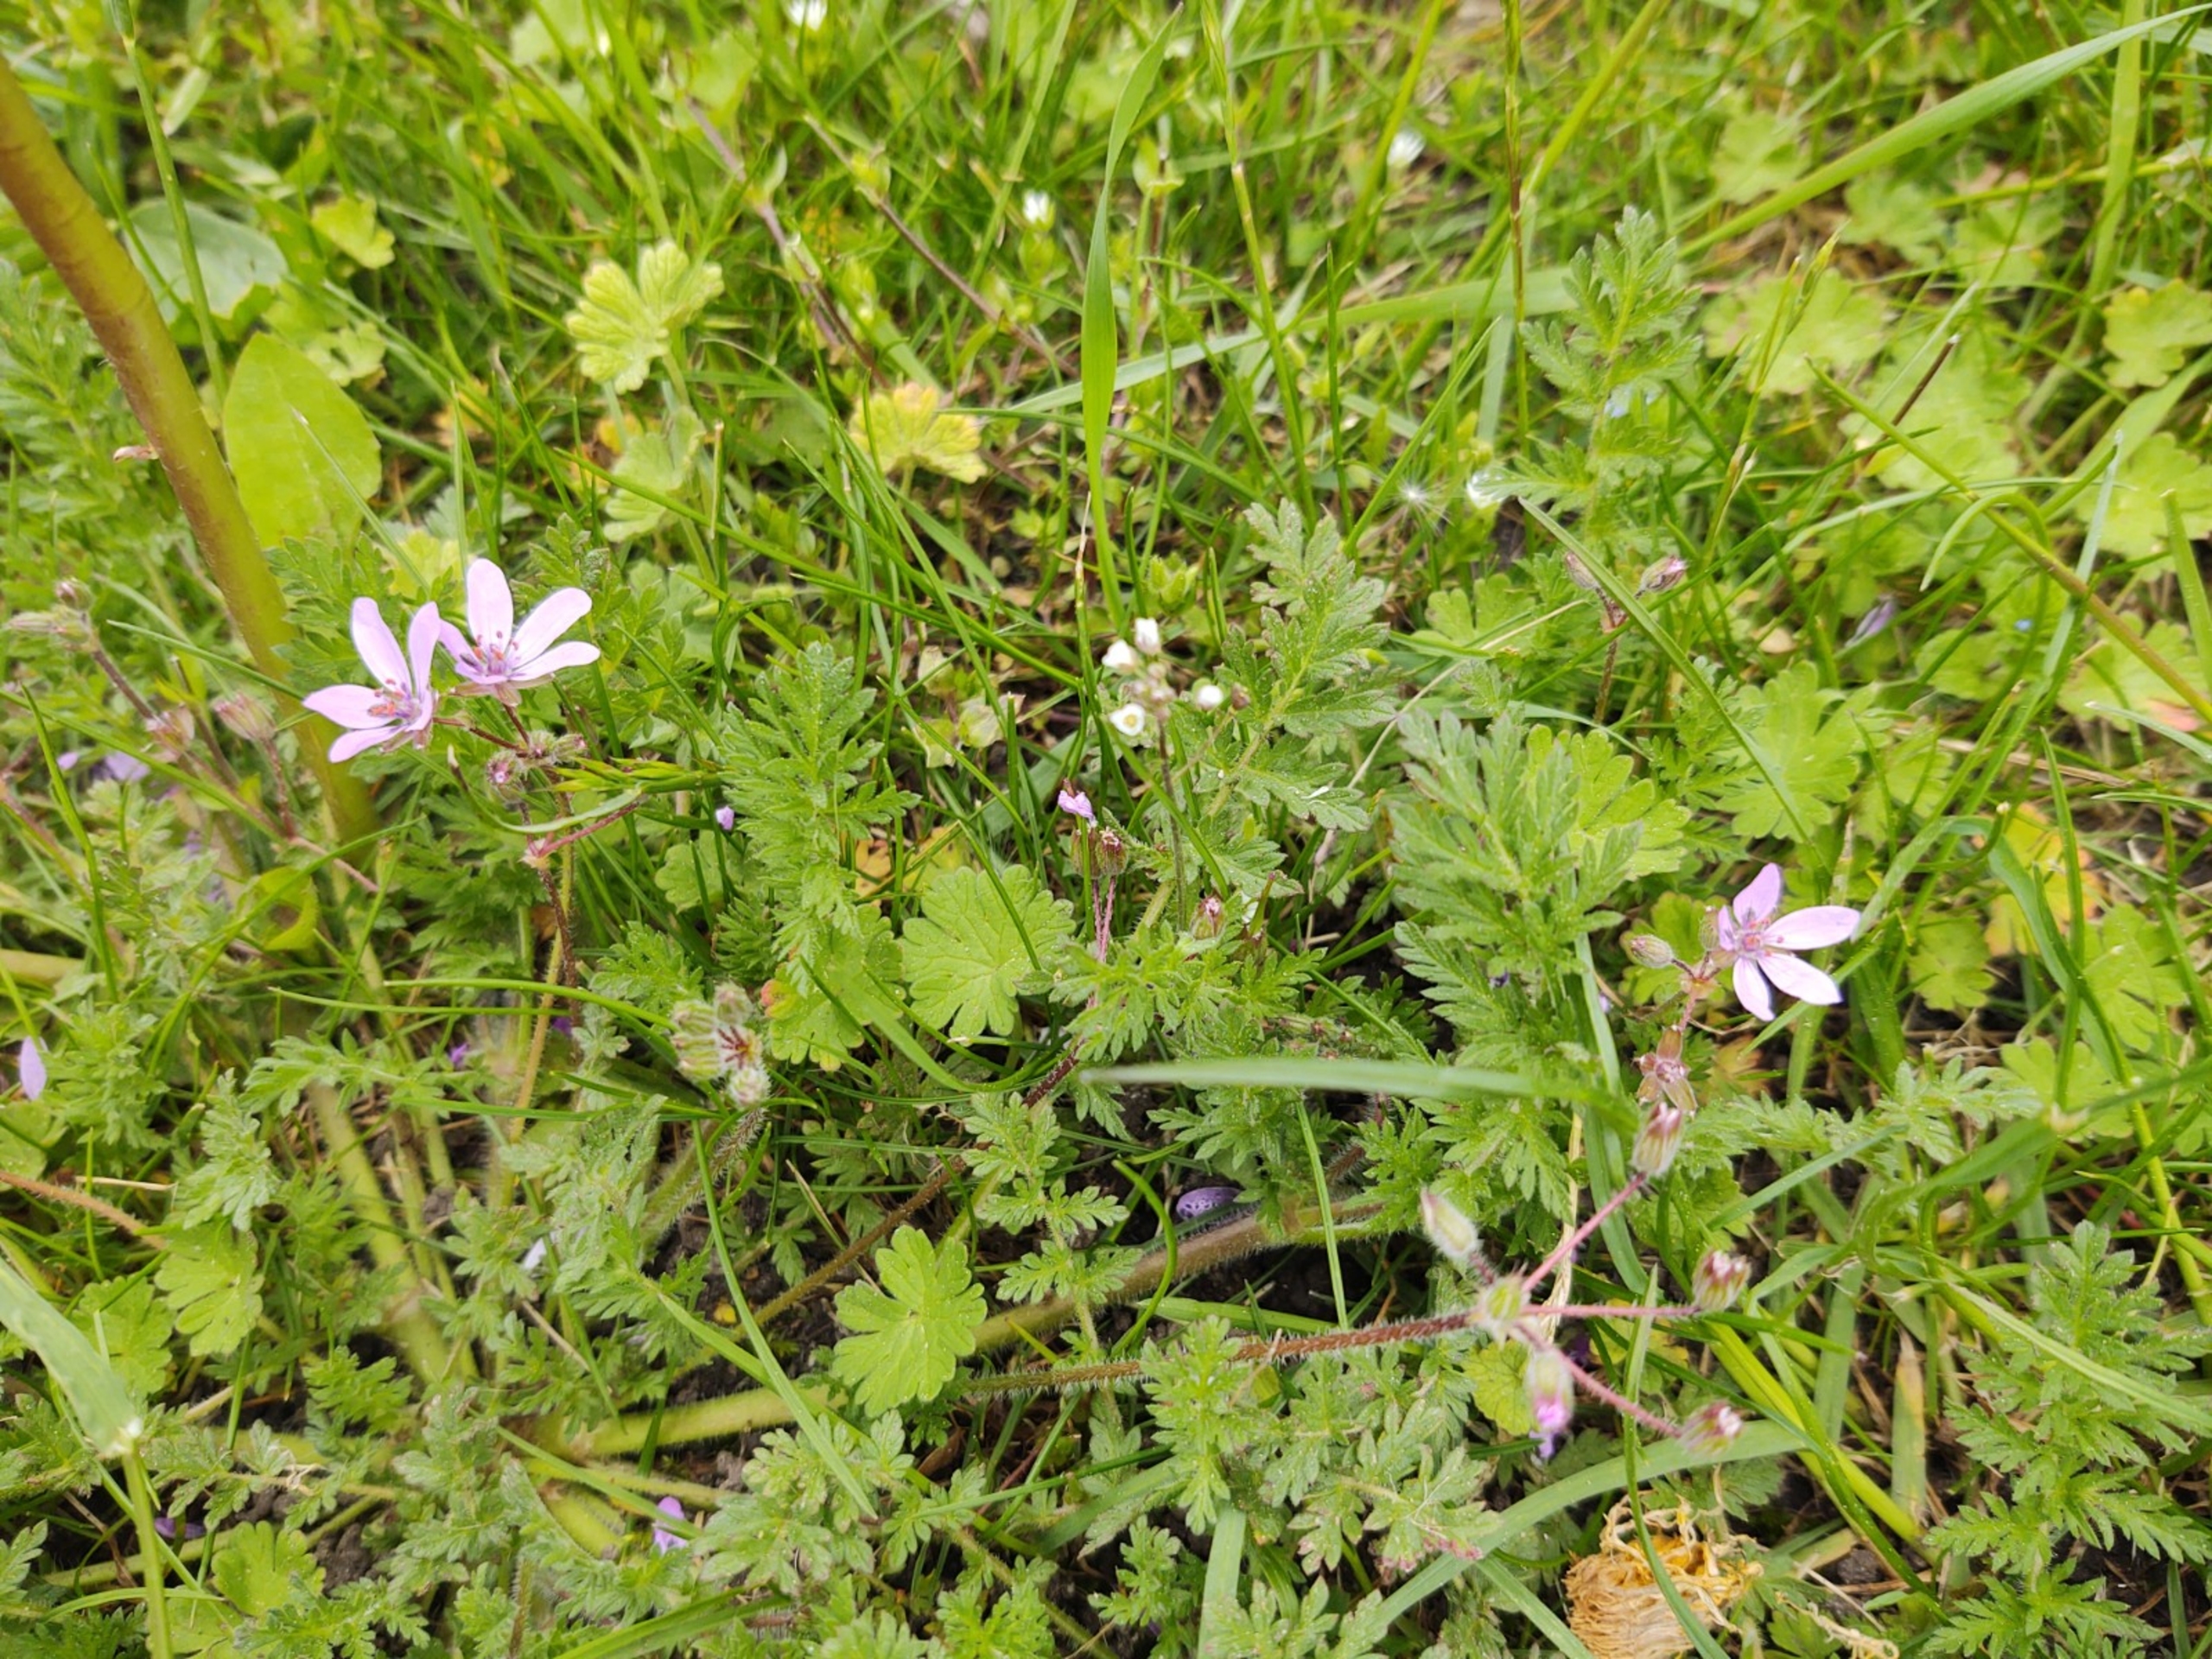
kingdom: Plantae
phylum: Tracheophyta
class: Magnoliopsida
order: Geraniales
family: Geraniaceae
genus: Erodium
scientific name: Erodium cicutarium
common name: Hejrenæb
